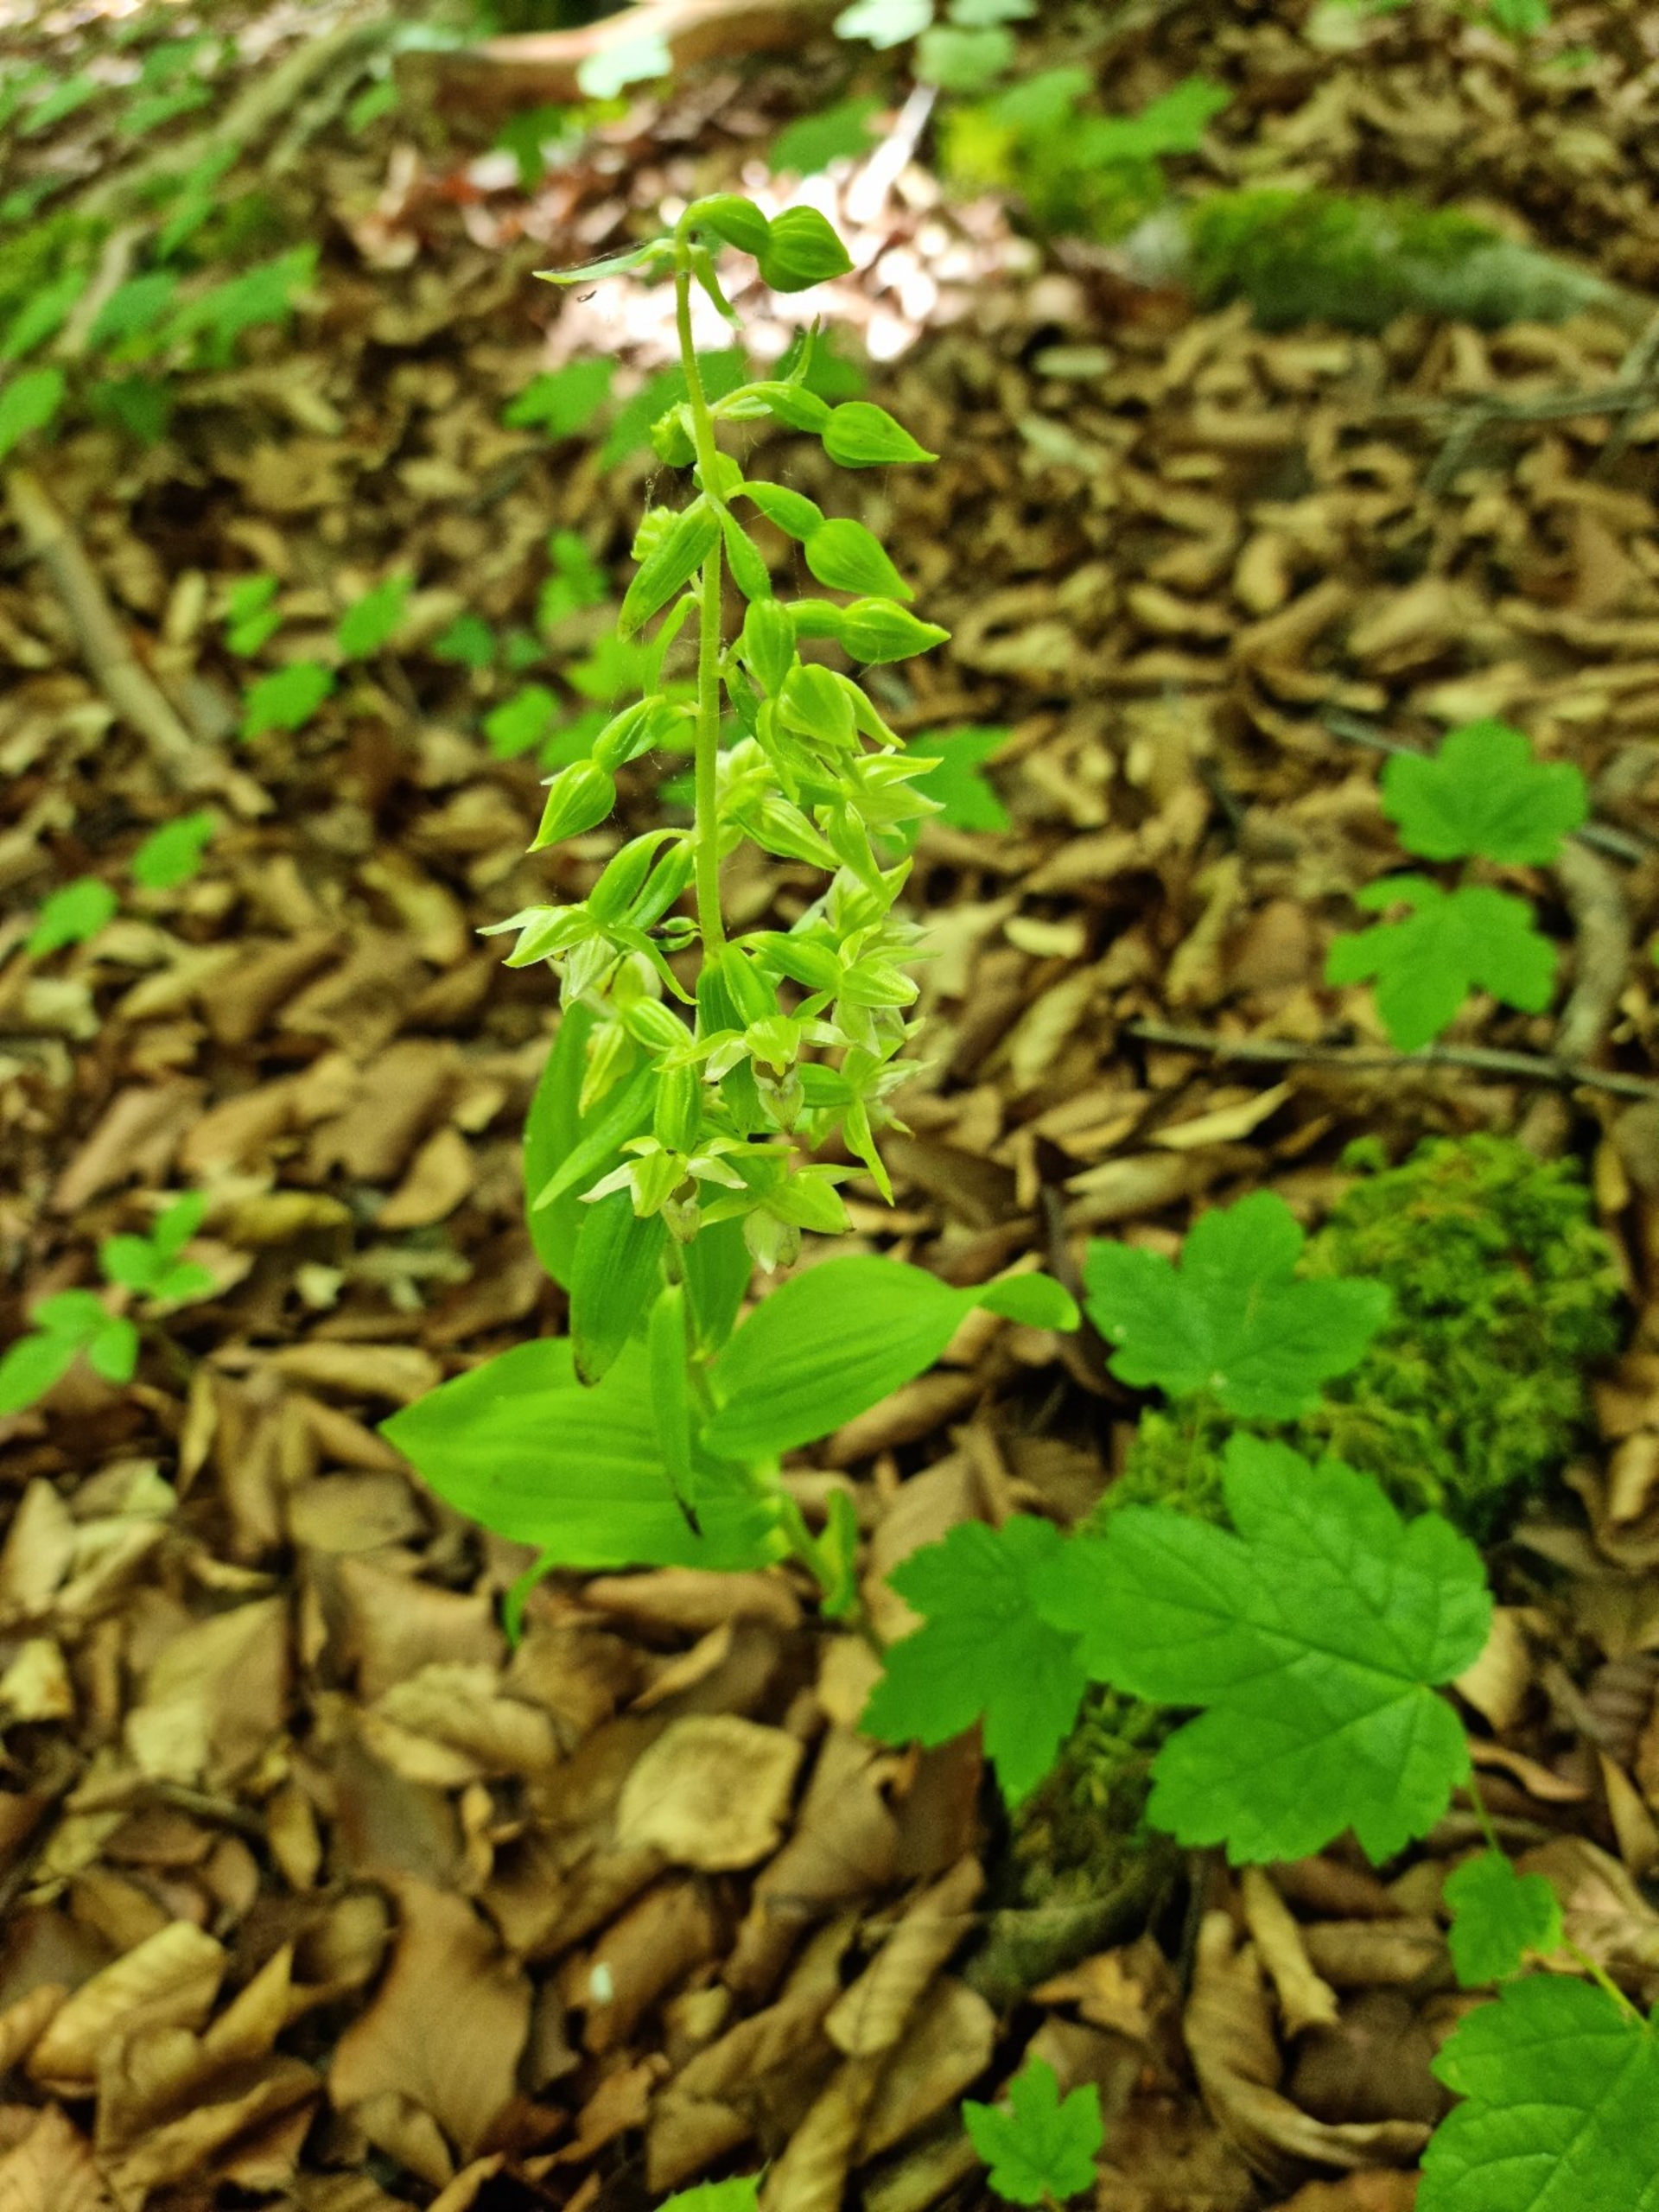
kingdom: Plantae
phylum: Tracheophyta
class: Liliopsida
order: Asparagales
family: Orchidaceae
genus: Epipactis
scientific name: Epipactis leptochila
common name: Storblomstret hullæbe
